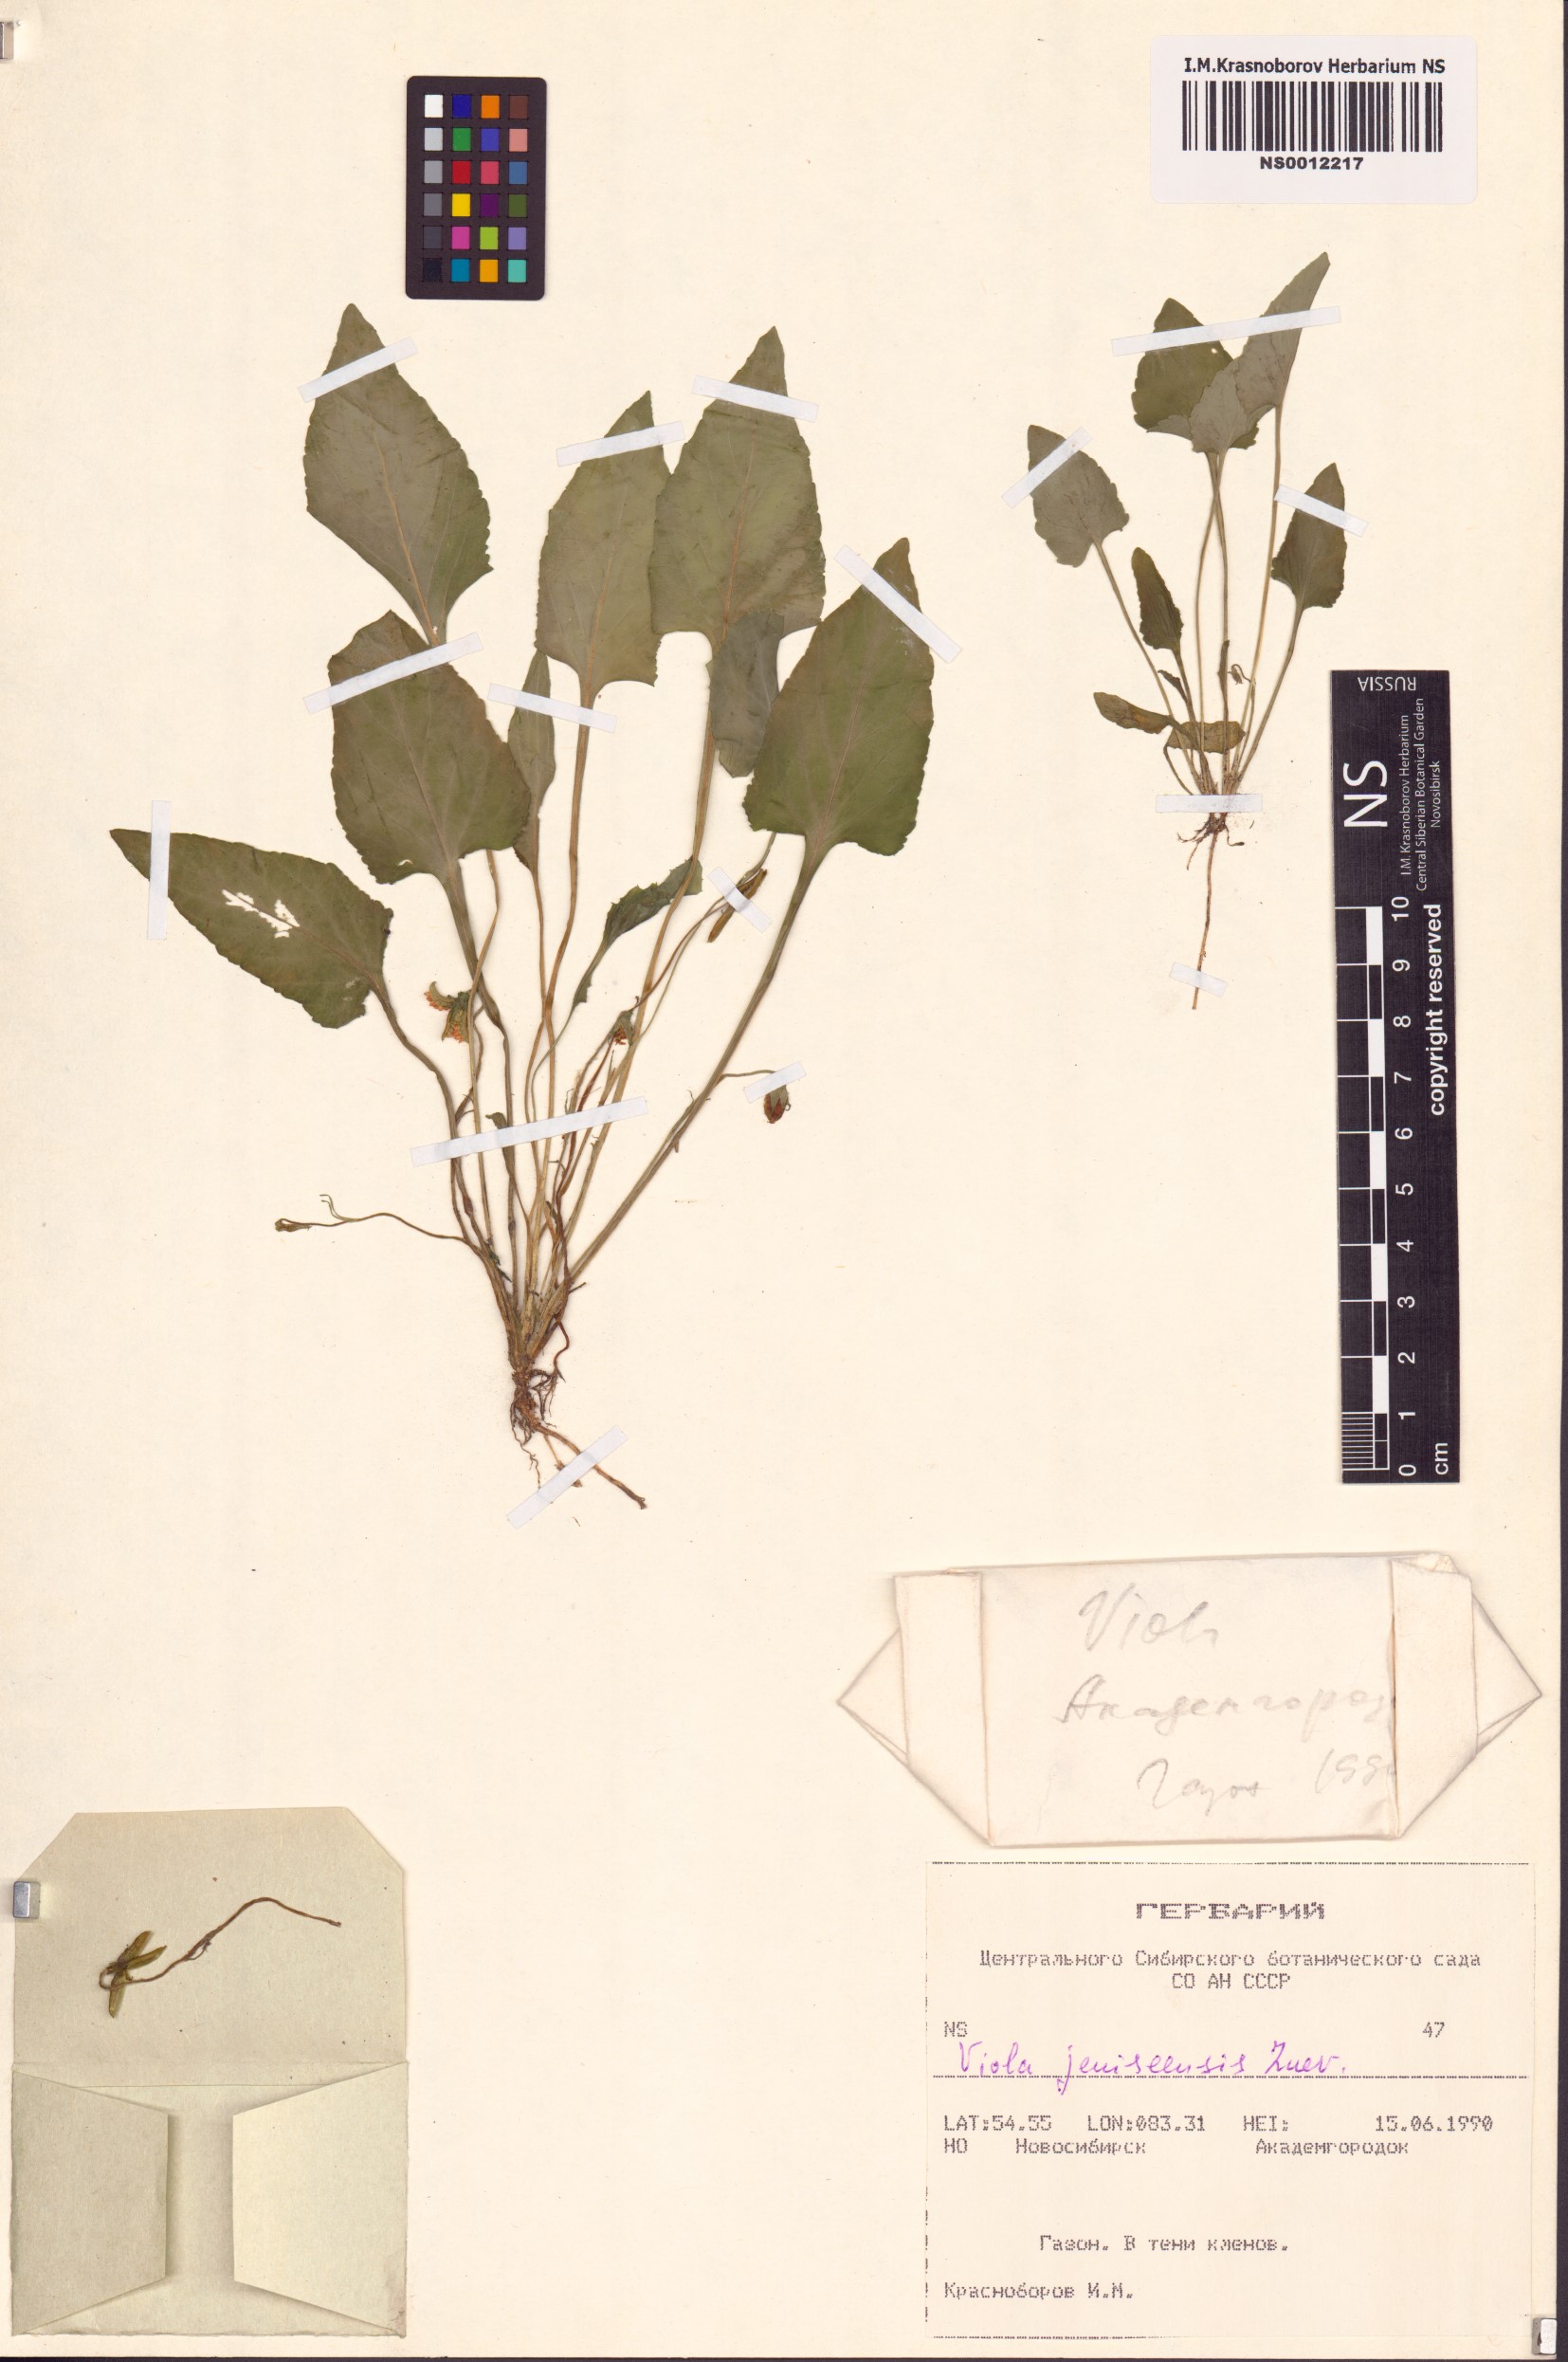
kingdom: Plantae
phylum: Tracheophyta
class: Magnoliopsida
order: Malpighiales
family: Violaceae
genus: Viola
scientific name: Viola prionantha
